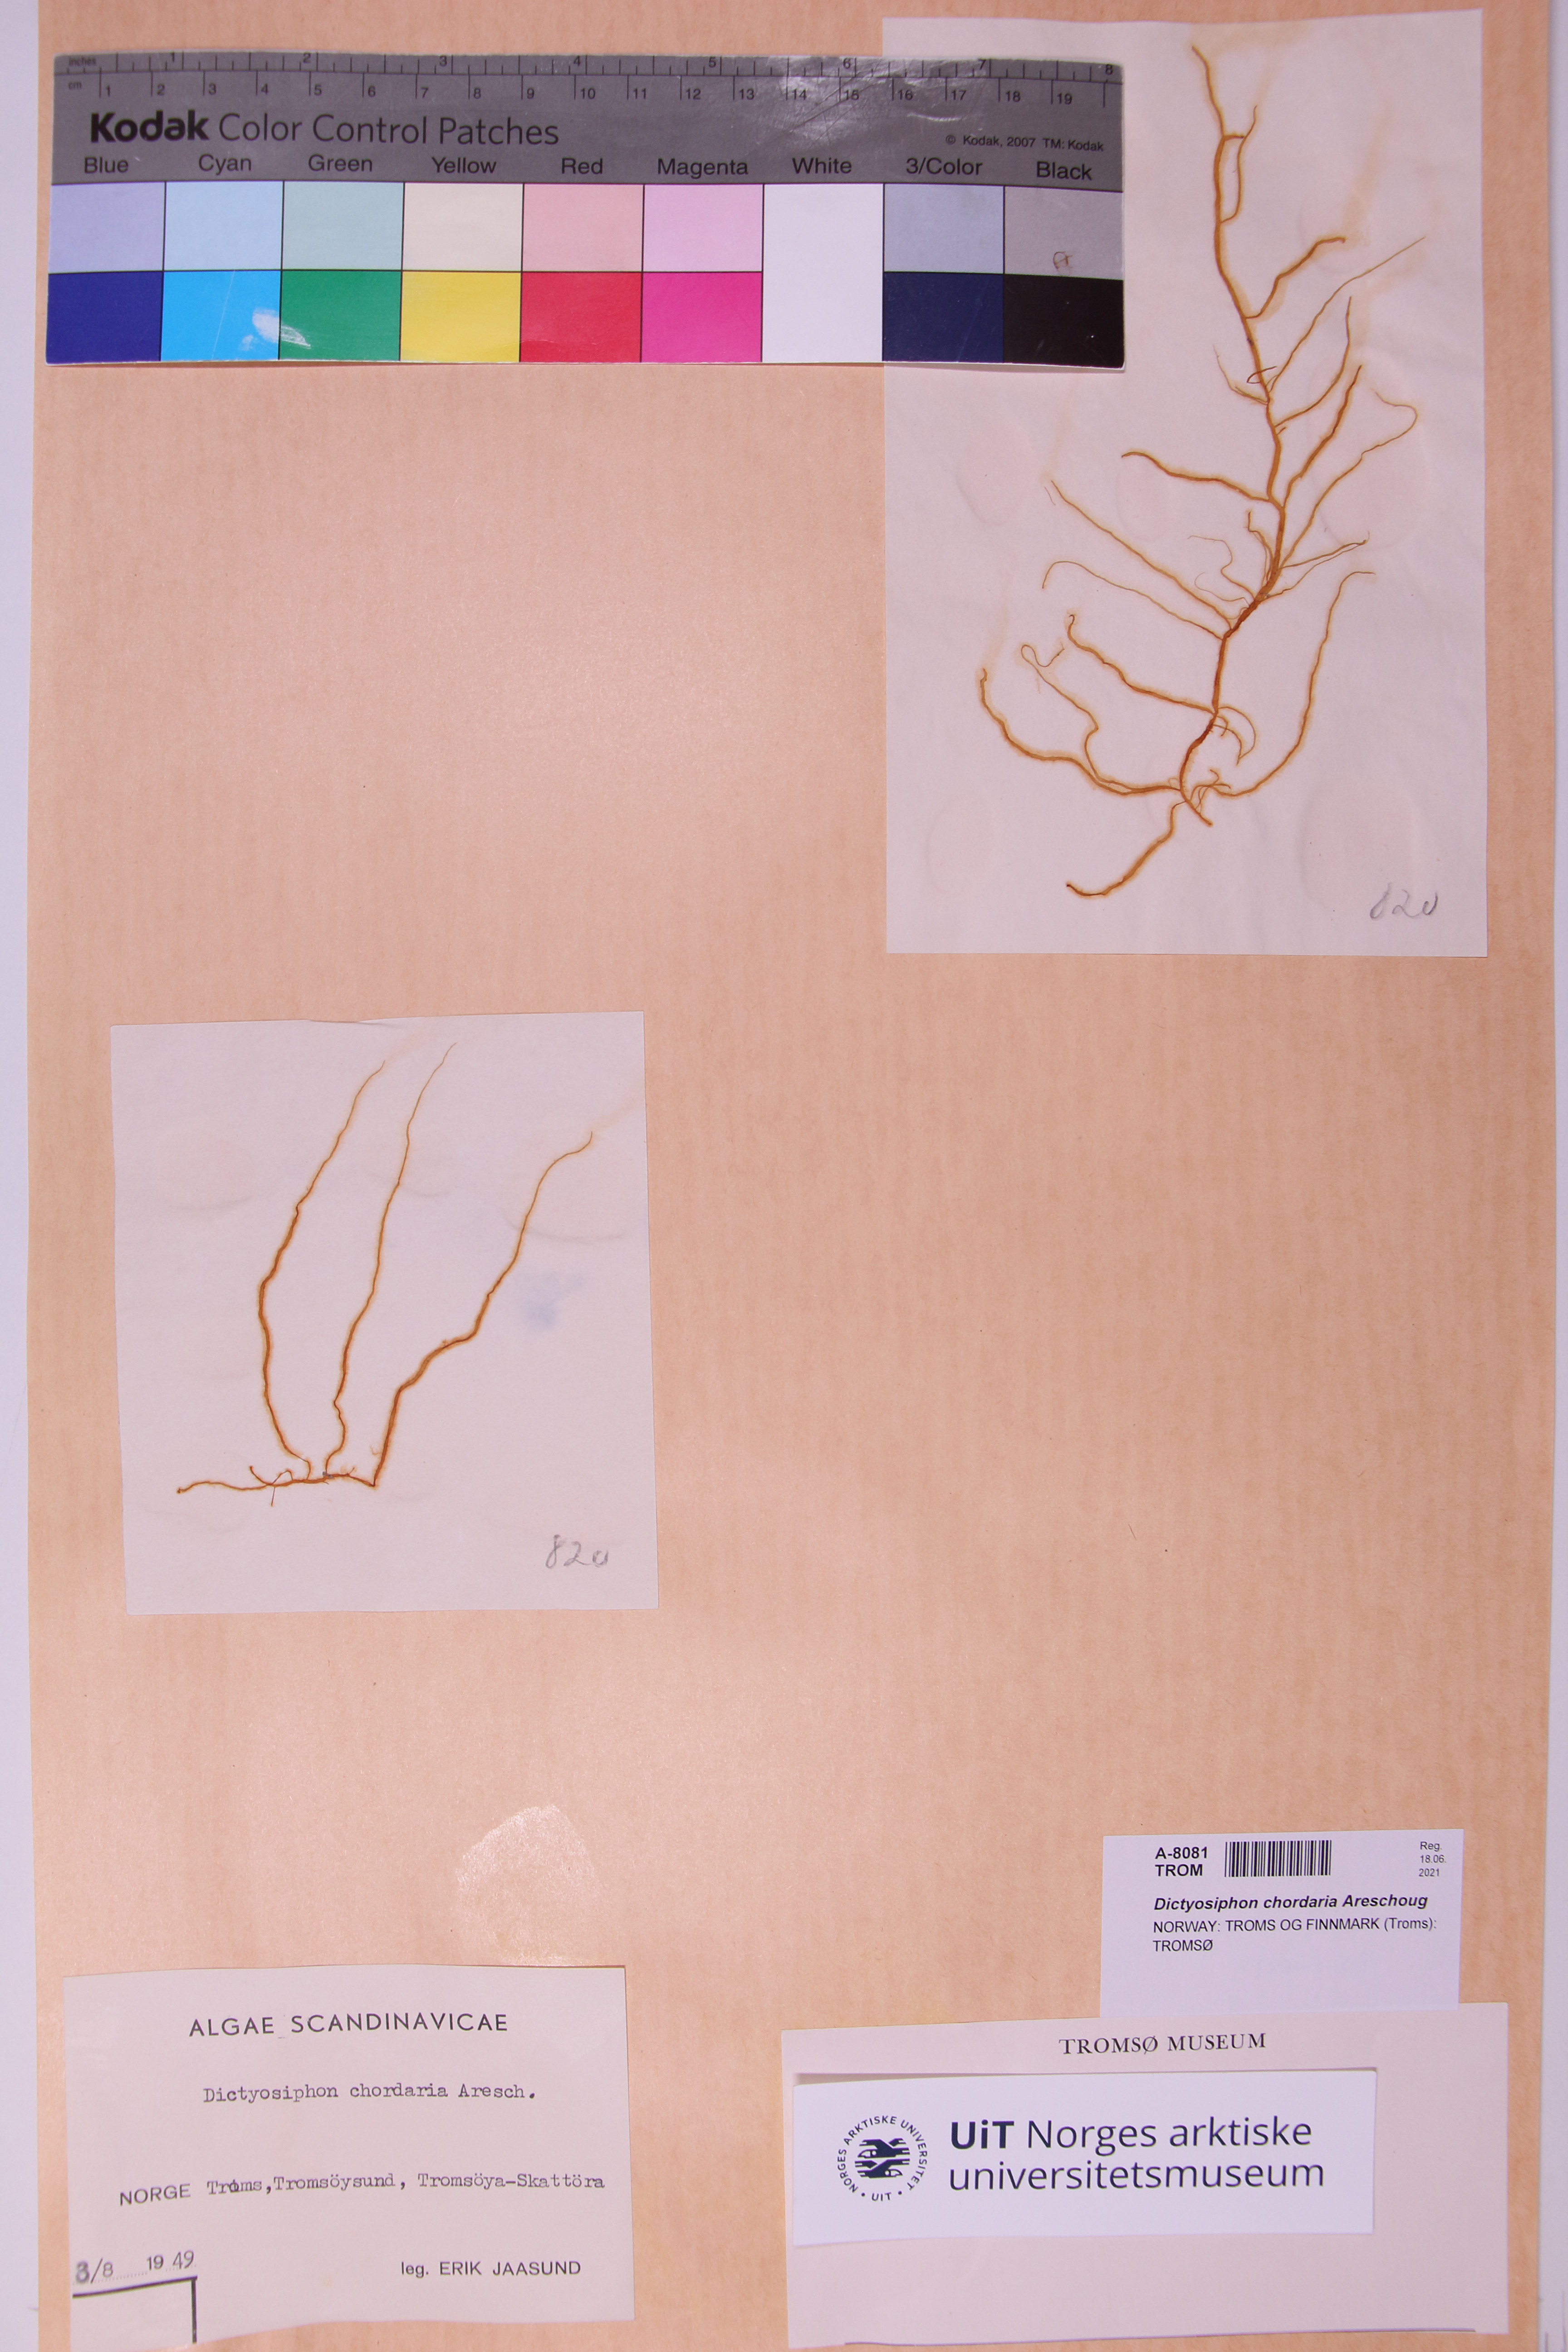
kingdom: Chromista
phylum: Ochrophyta
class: Phaeophyceae
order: Ectocarpales
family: Chordariaceae
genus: Dictyosiphon
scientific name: Dictyosiphon chordaria
